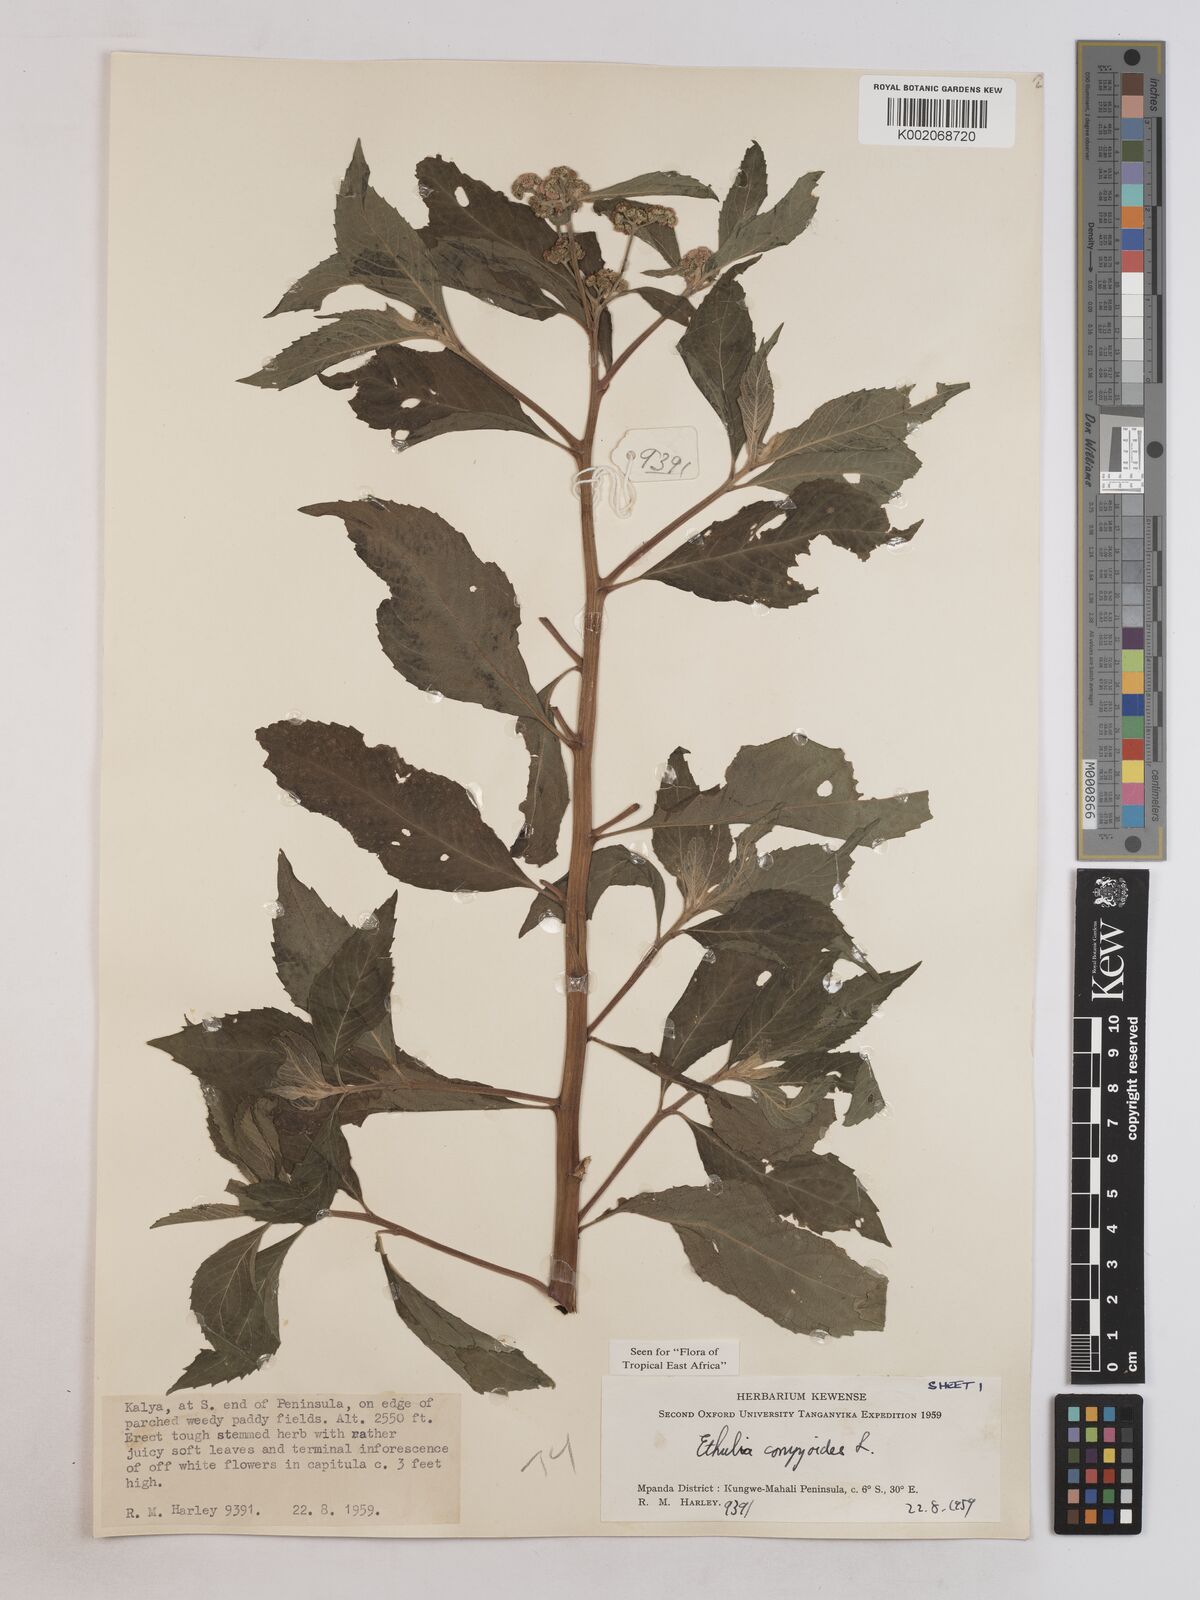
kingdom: Plantae
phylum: Tracheophyta
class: Magnoliopsida
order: Asterales
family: Asteraceae
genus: Ethulia
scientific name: Ethulia conyzoides
